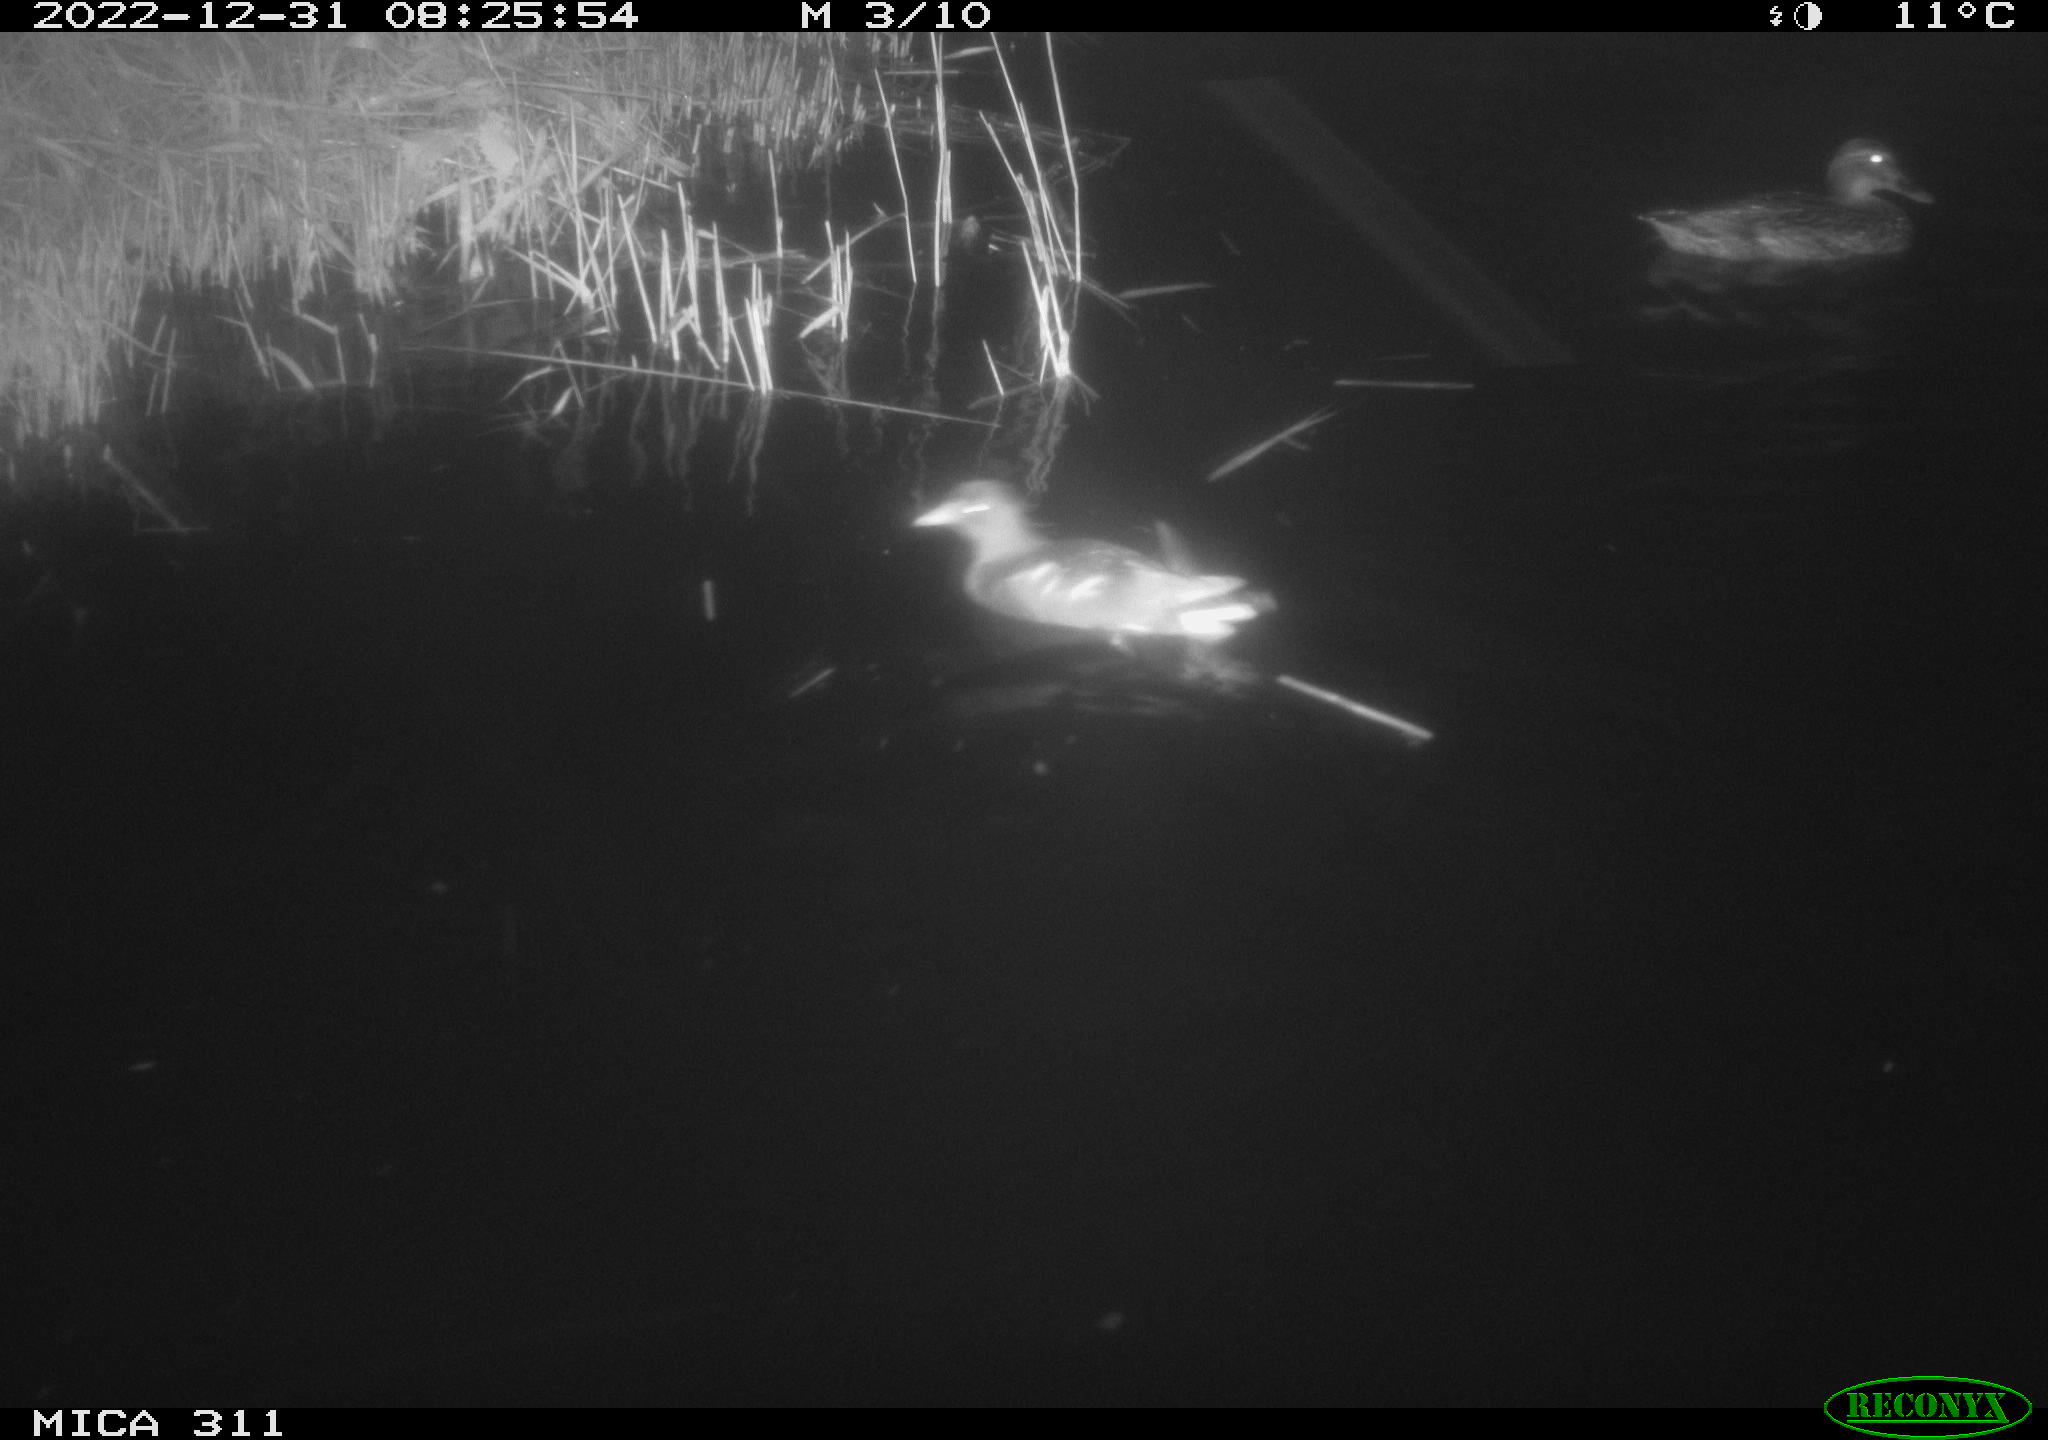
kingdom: Animalia
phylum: Chordata
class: Aves
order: Gruiformes
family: Rallidae
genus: Gallinula
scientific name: Gallinula chloropus
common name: Common moorhen
